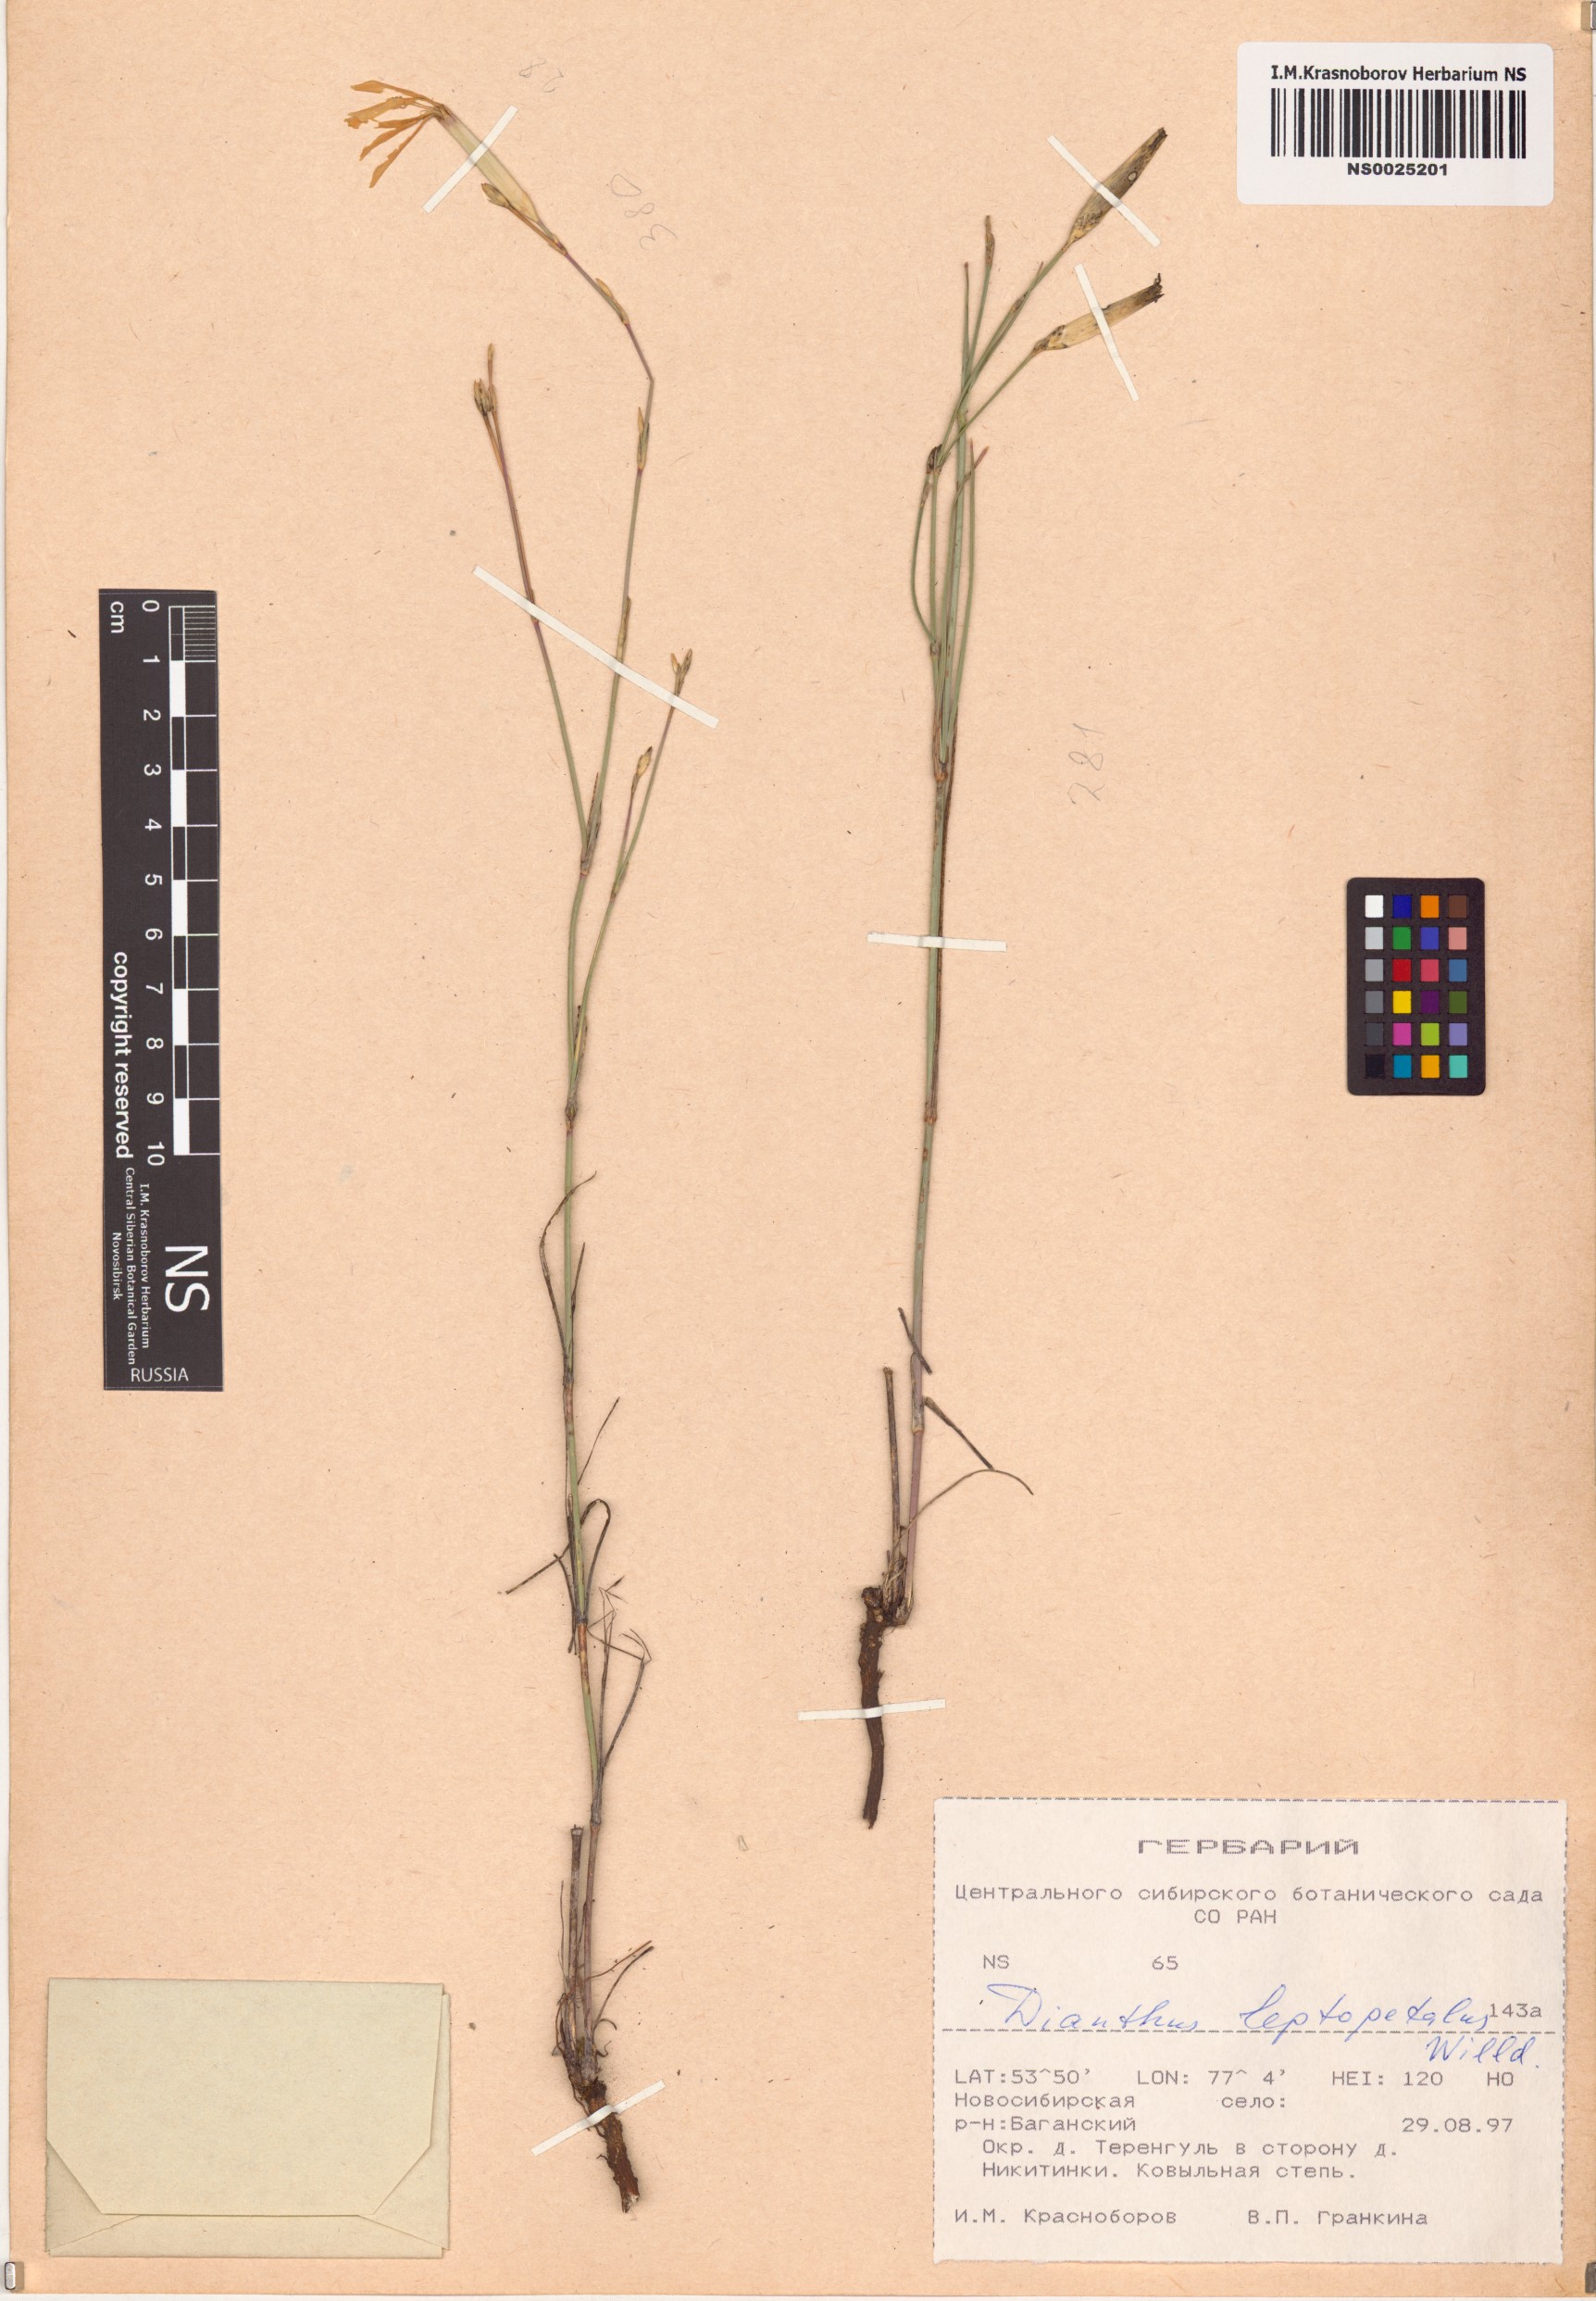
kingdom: Plantae
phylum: Tracheophyta
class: Magnoliopsida
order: Caryophyllales
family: Caryophyllaceae
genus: Dianthus
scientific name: Dianthus leptopetalus
